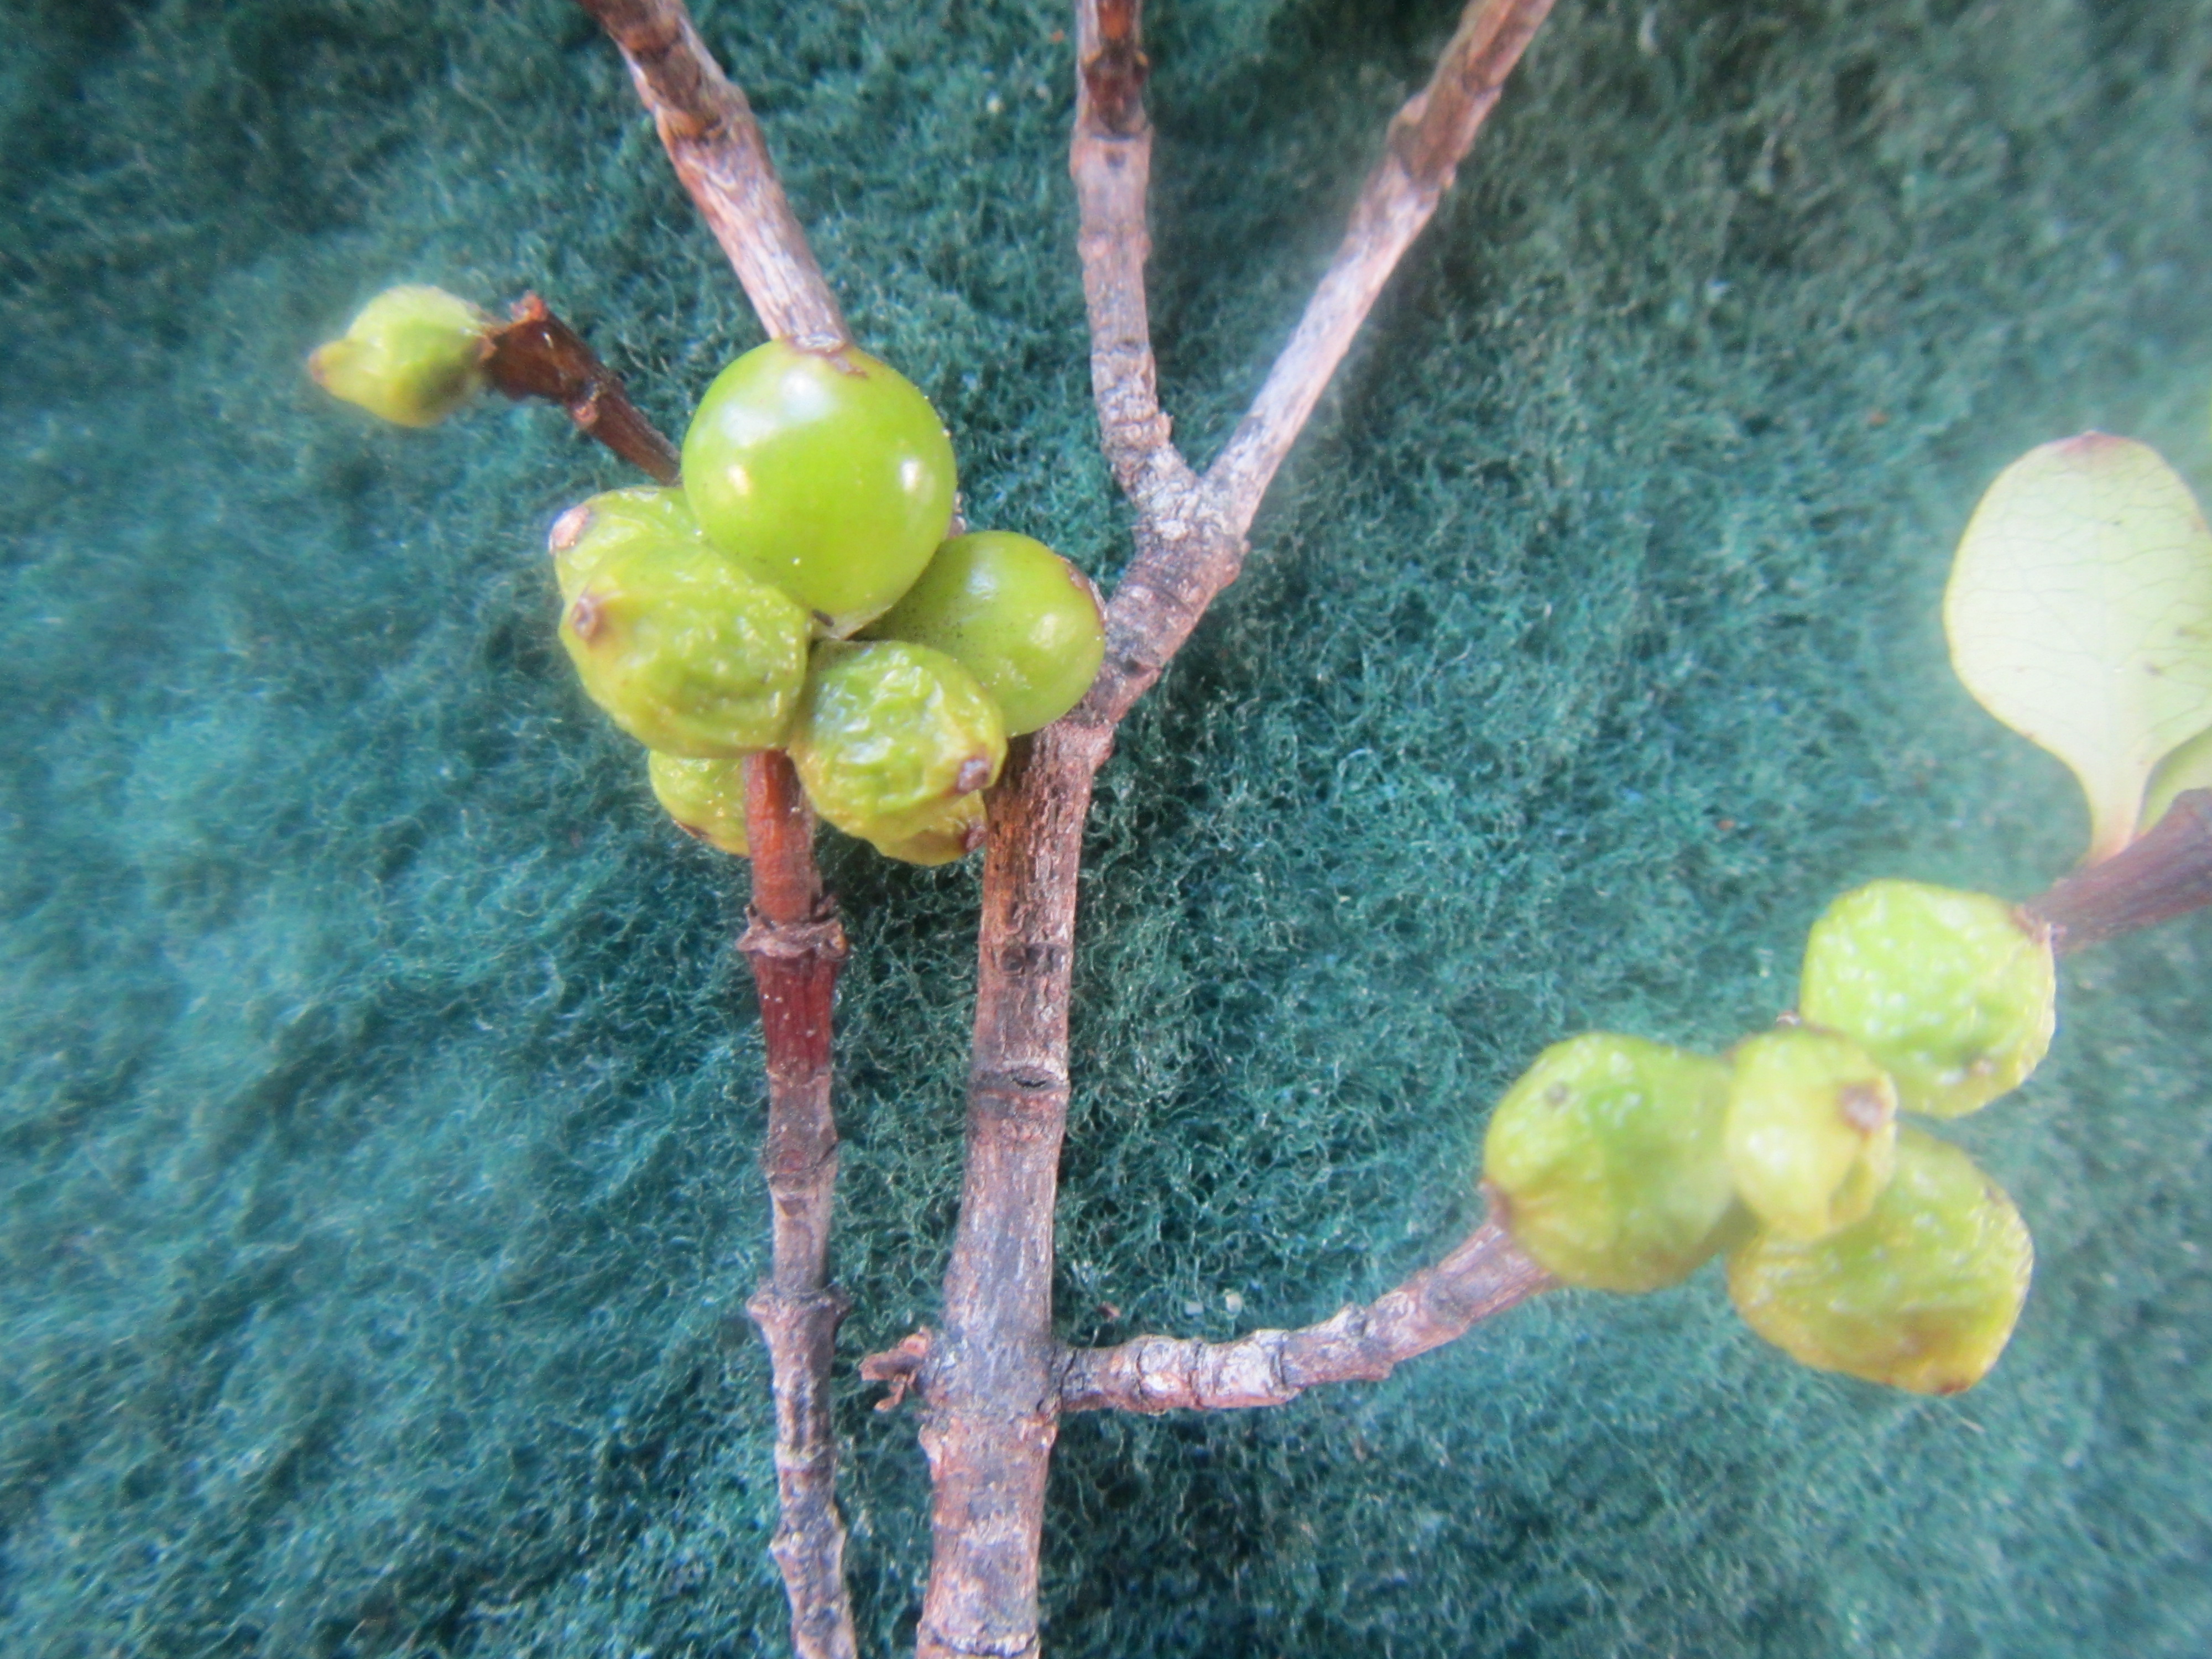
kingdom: Plantae
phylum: Tracheophyta
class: Magnoliopsida
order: Sapindales
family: Anacardiaceae
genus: Toxicodendron
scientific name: Toxicodendron succedaneum
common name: Wax tree
